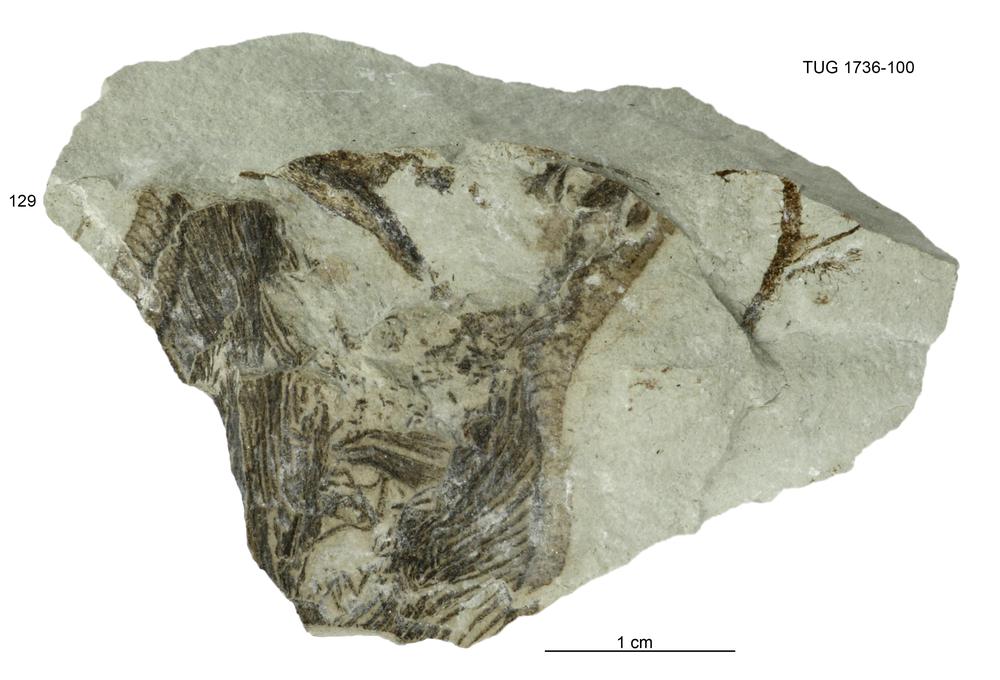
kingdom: Animalia
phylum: Echinodermata
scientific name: Echinodermata
